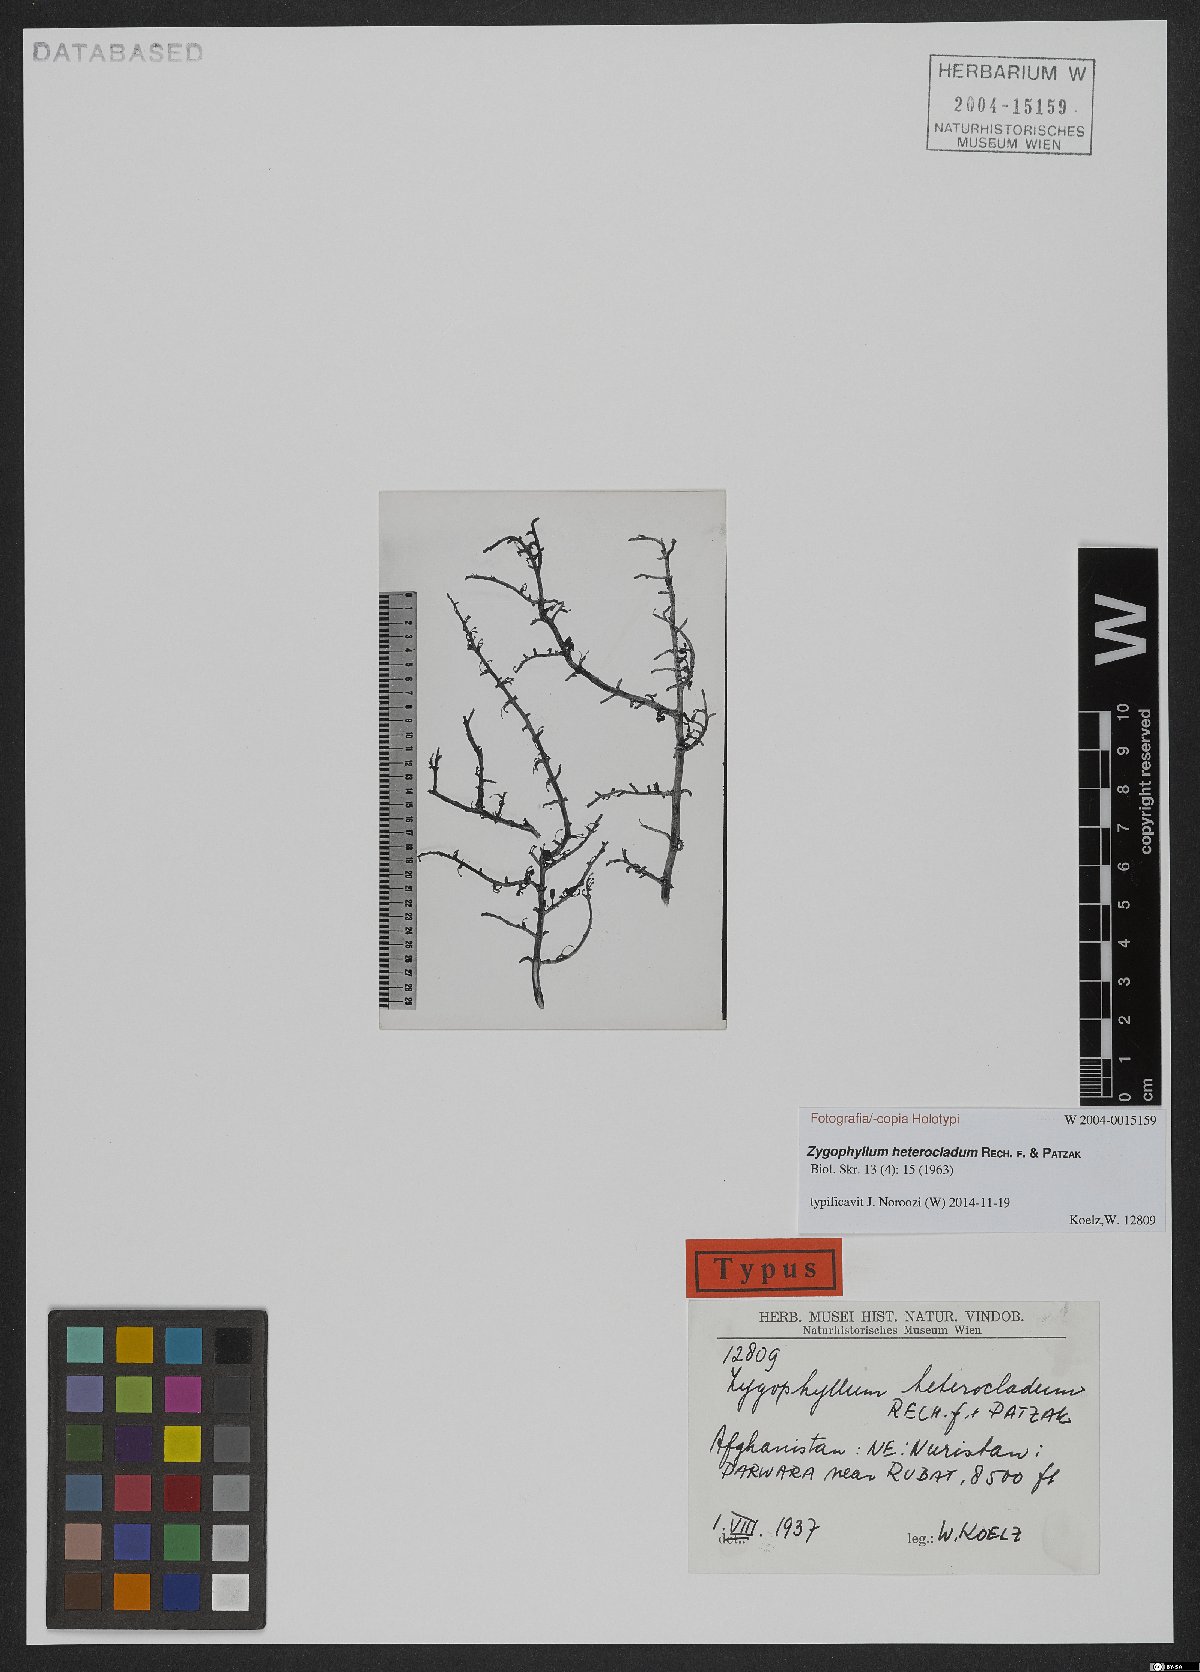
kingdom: Plantae
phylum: Tracheophyta
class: Magnoliopsida
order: Zygophyllales
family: Zygophyllaceae
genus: Zygophyllum
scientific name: Zygophyllum heterocladum
